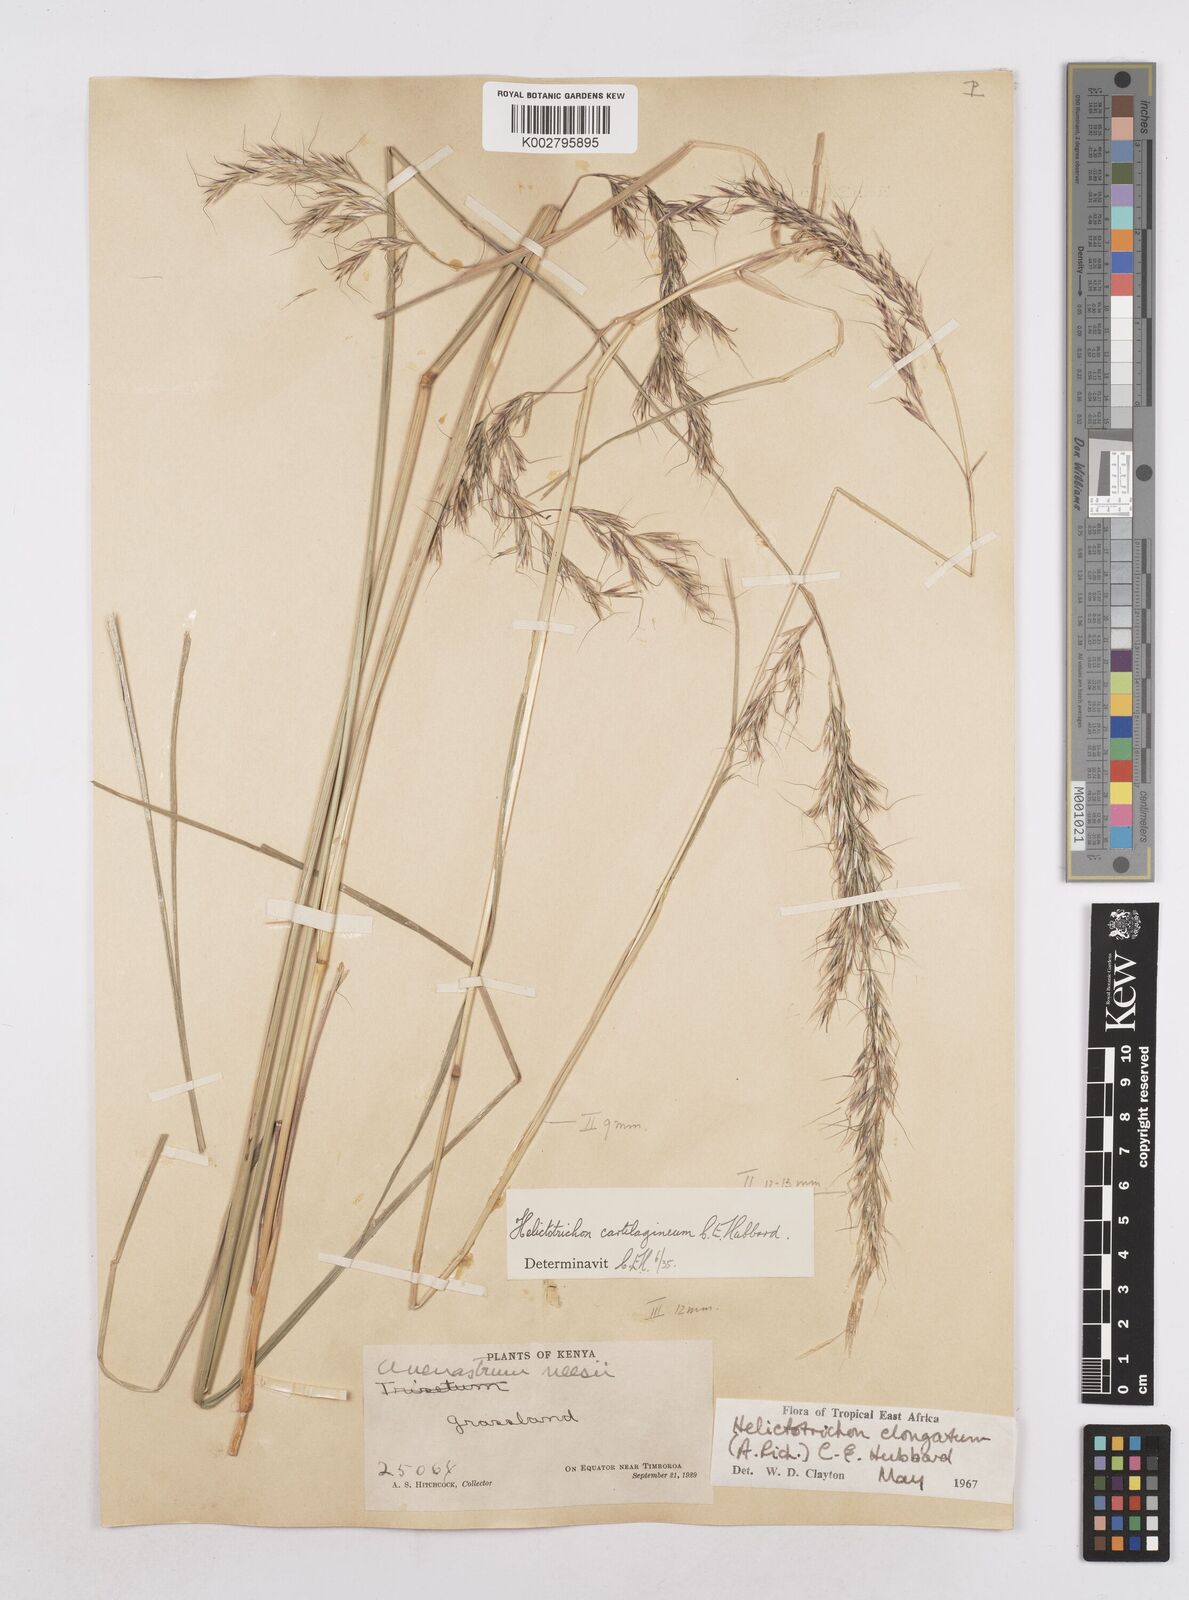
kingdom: Plantae
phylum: Tracheophyta
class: Liliopsida
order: Poales
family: Poaceae
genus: Trisetopsis
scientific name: Trisetopsis elongata
